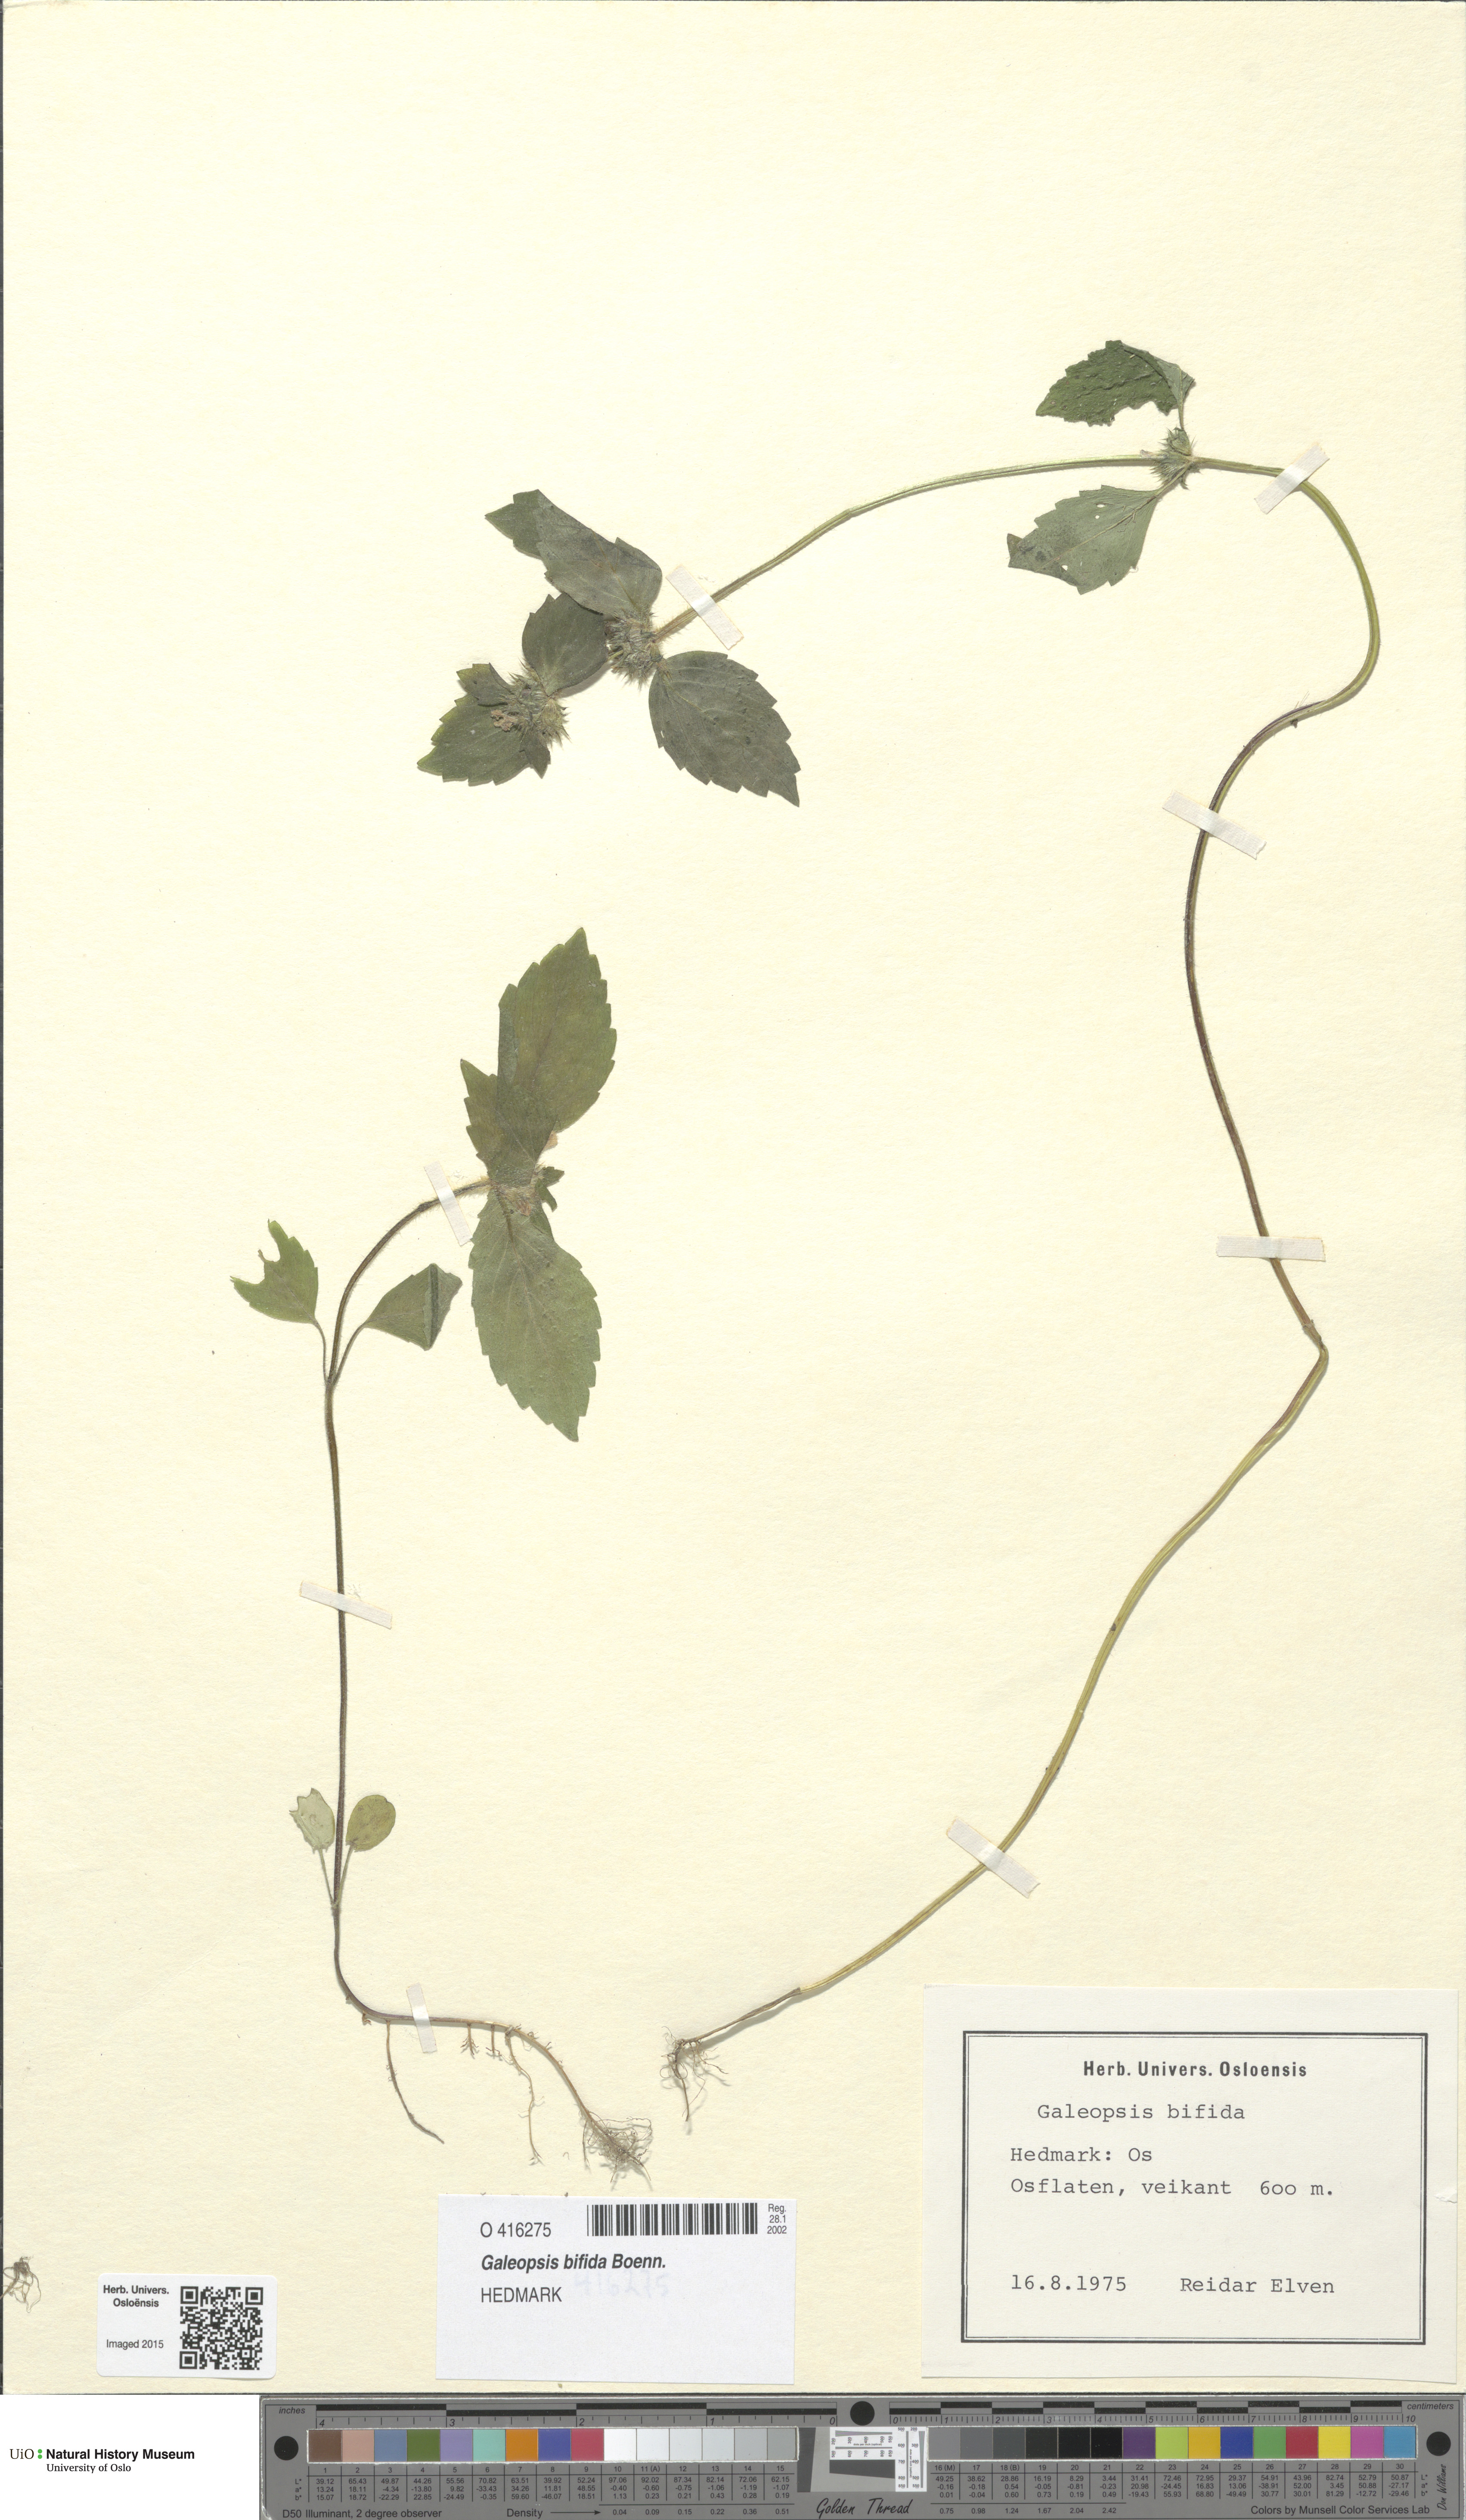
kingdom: Plantae
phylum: Tracheophyta
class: Magnoliopsida
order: Lamiales
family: Lamiaceae
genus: Galeopsis
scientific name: Galeopsis bifida
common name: Bifid hemp-nettle
